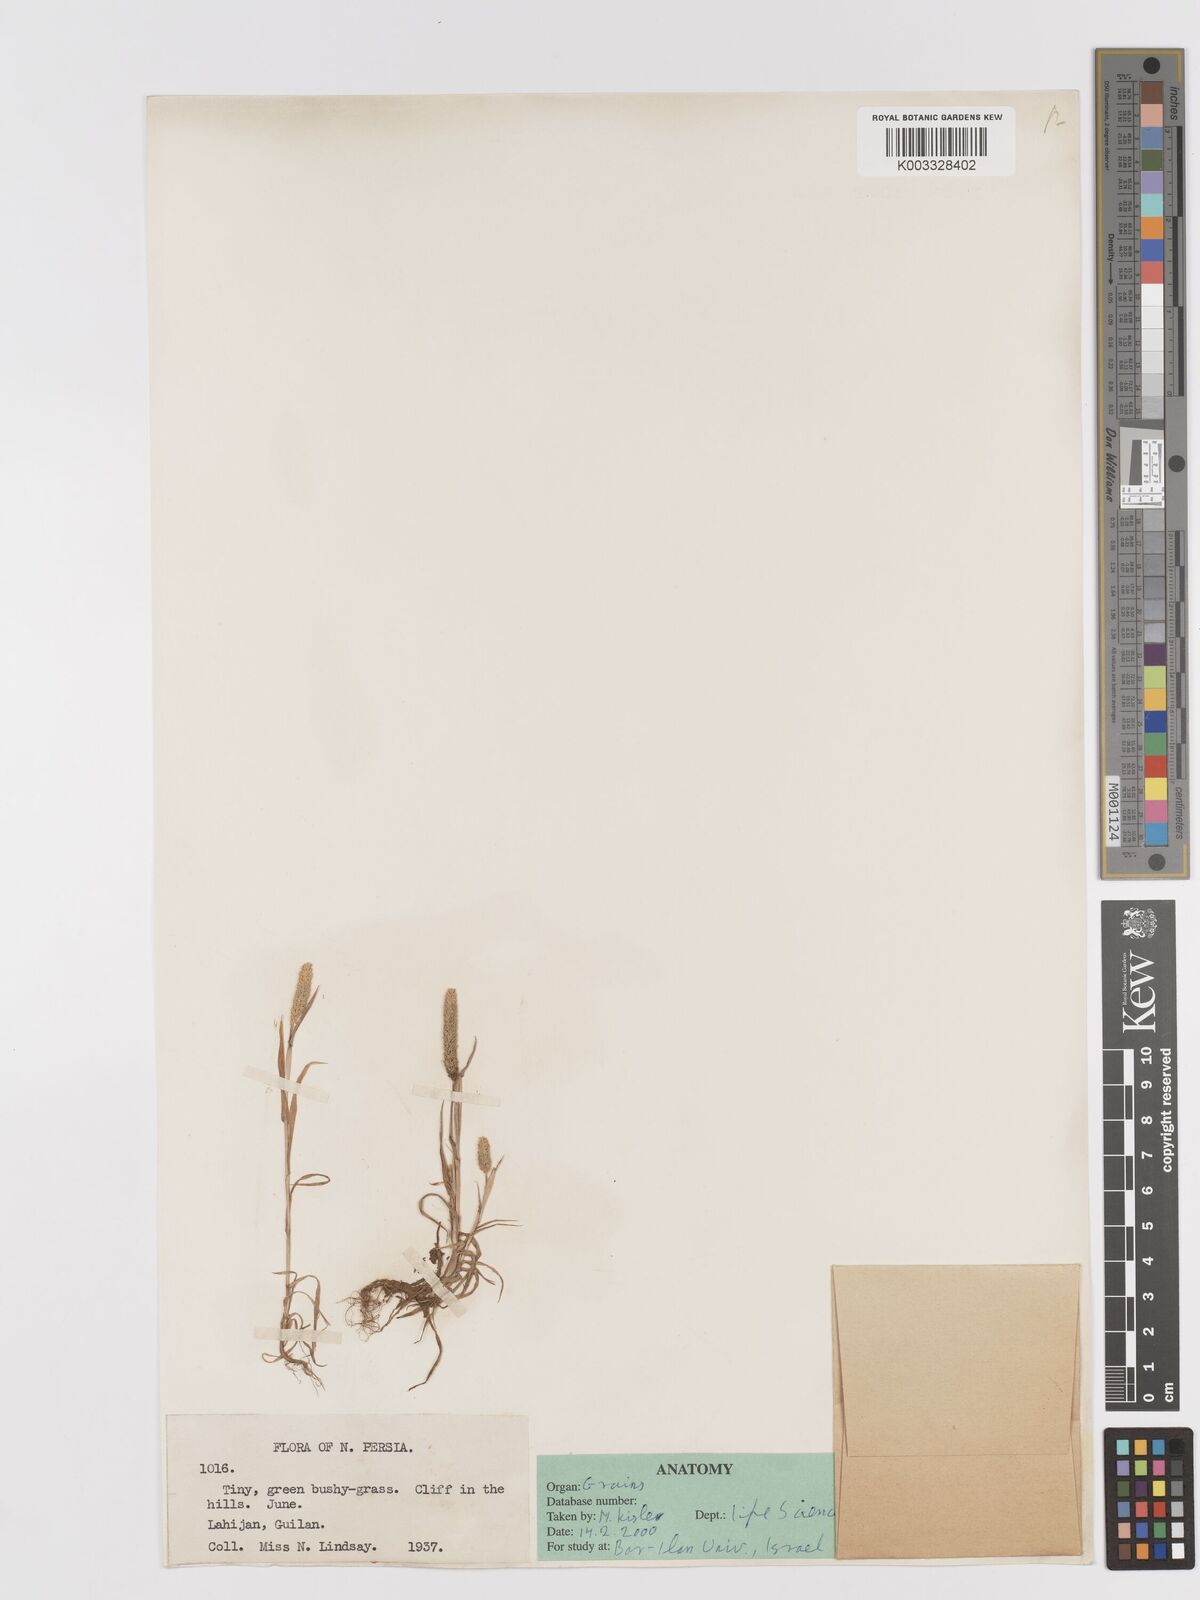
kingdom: Plantae
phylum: Tracheophyta
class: Liliopsida
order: Poales
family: Poaceae
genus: Phleum
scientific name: Phleum paniculatum
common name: British timothy
